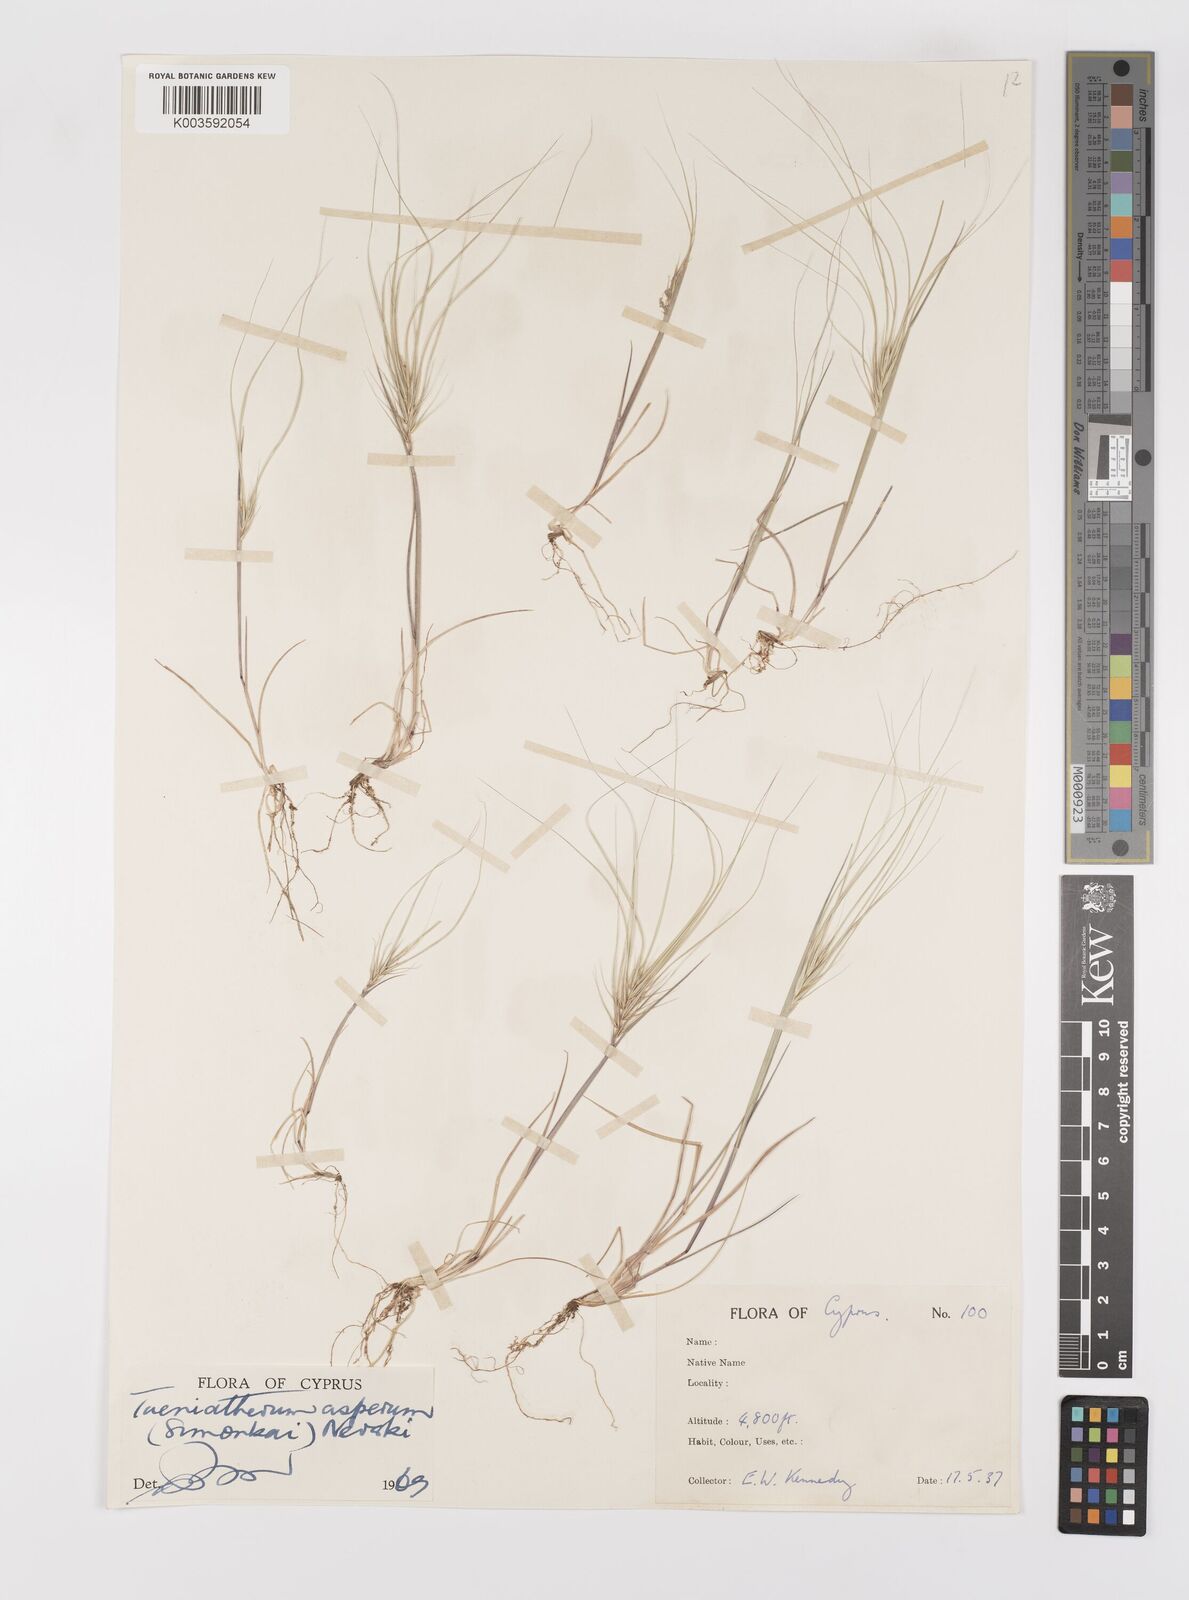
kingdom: Plantae
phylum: Tracheophyta
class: Liliopsida
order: Poales
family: Poaceae
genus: Taeniatherum
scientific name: Taeniatherum caput-medusae
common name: Medusahead
